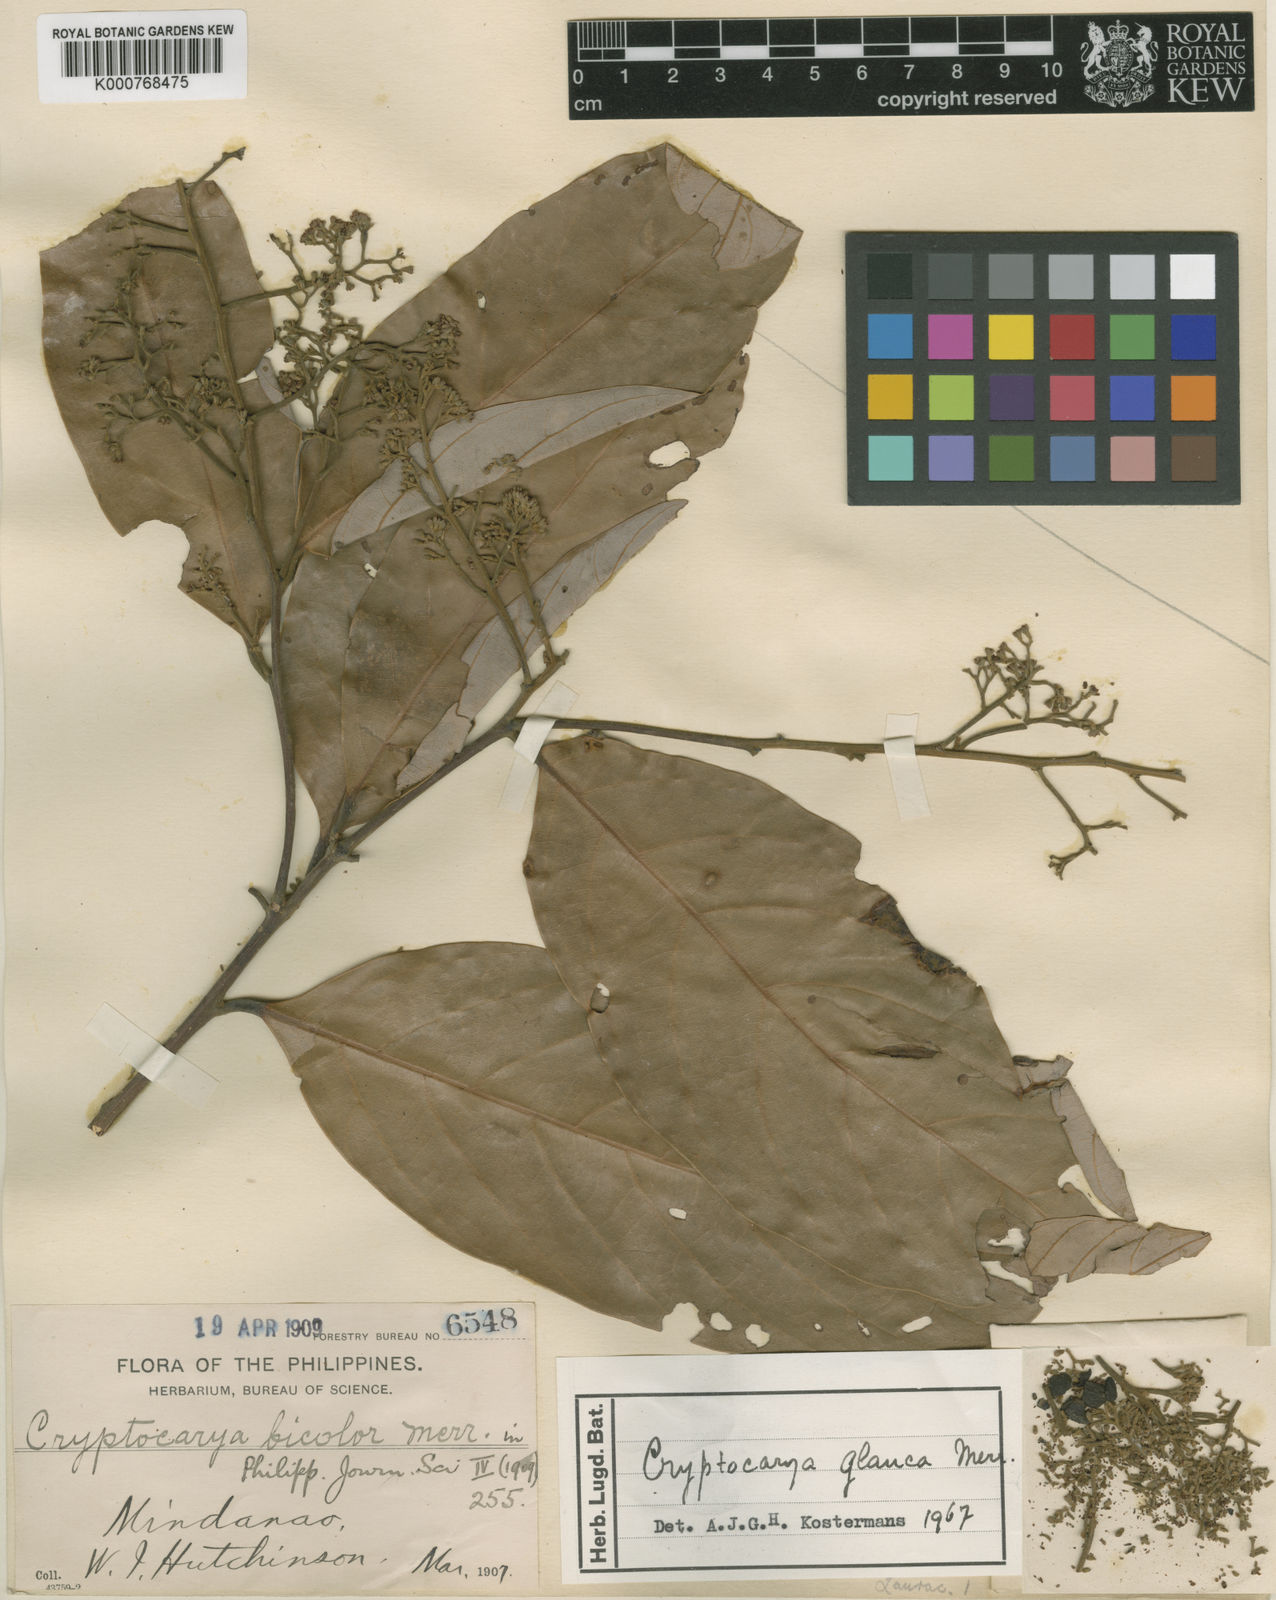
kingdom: Plantae
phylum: Tracheophyta
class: Magnoliopsida
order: Laurales
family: Lauraceae
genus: Cryptocarya
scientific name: Cryptocarya ferrea
